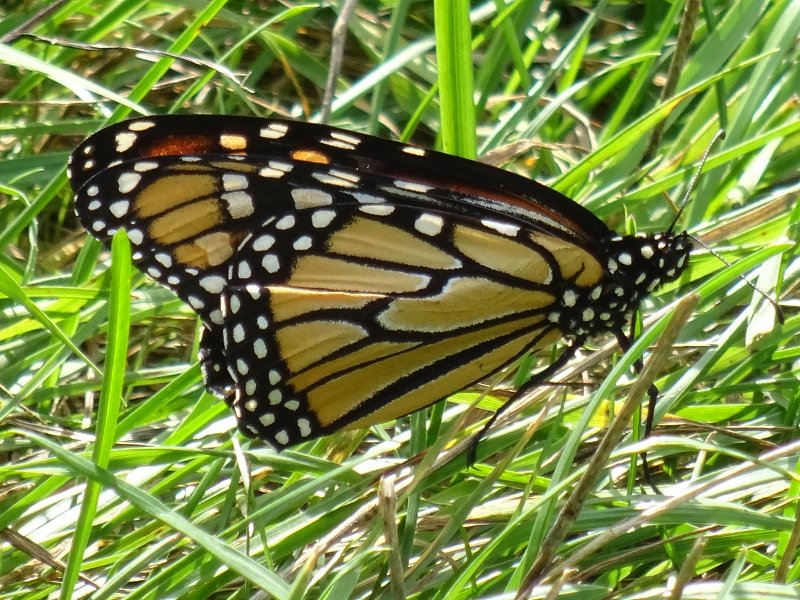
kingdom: Animalia
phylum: Arthropoda
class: Insecta
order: Lepidoptera
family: Nymphalidae
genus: Danaus
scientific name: Danaus plexippus
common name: Monarch
